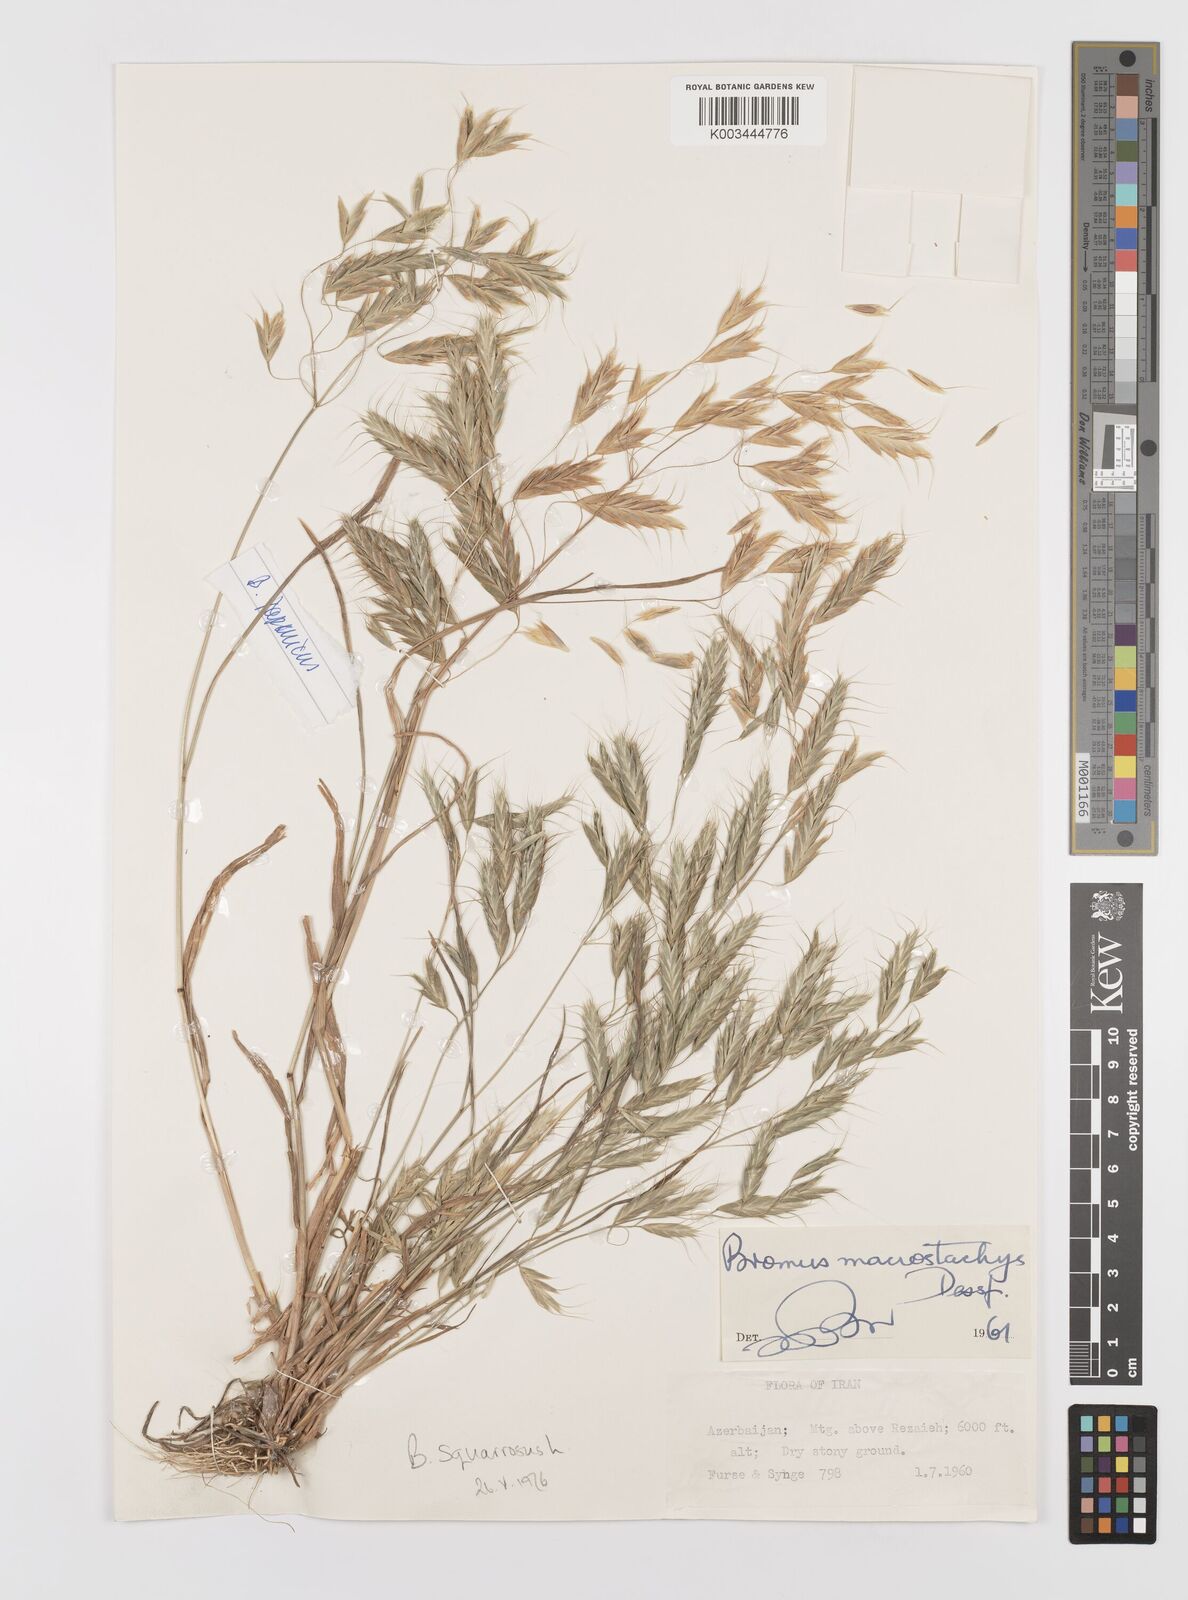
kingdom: Plantae
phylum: Tracheophyta
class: Liliopsida
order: Poales
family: Poaceae
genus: Bromus
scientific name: Bromus squarrosus
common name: Corn brome
